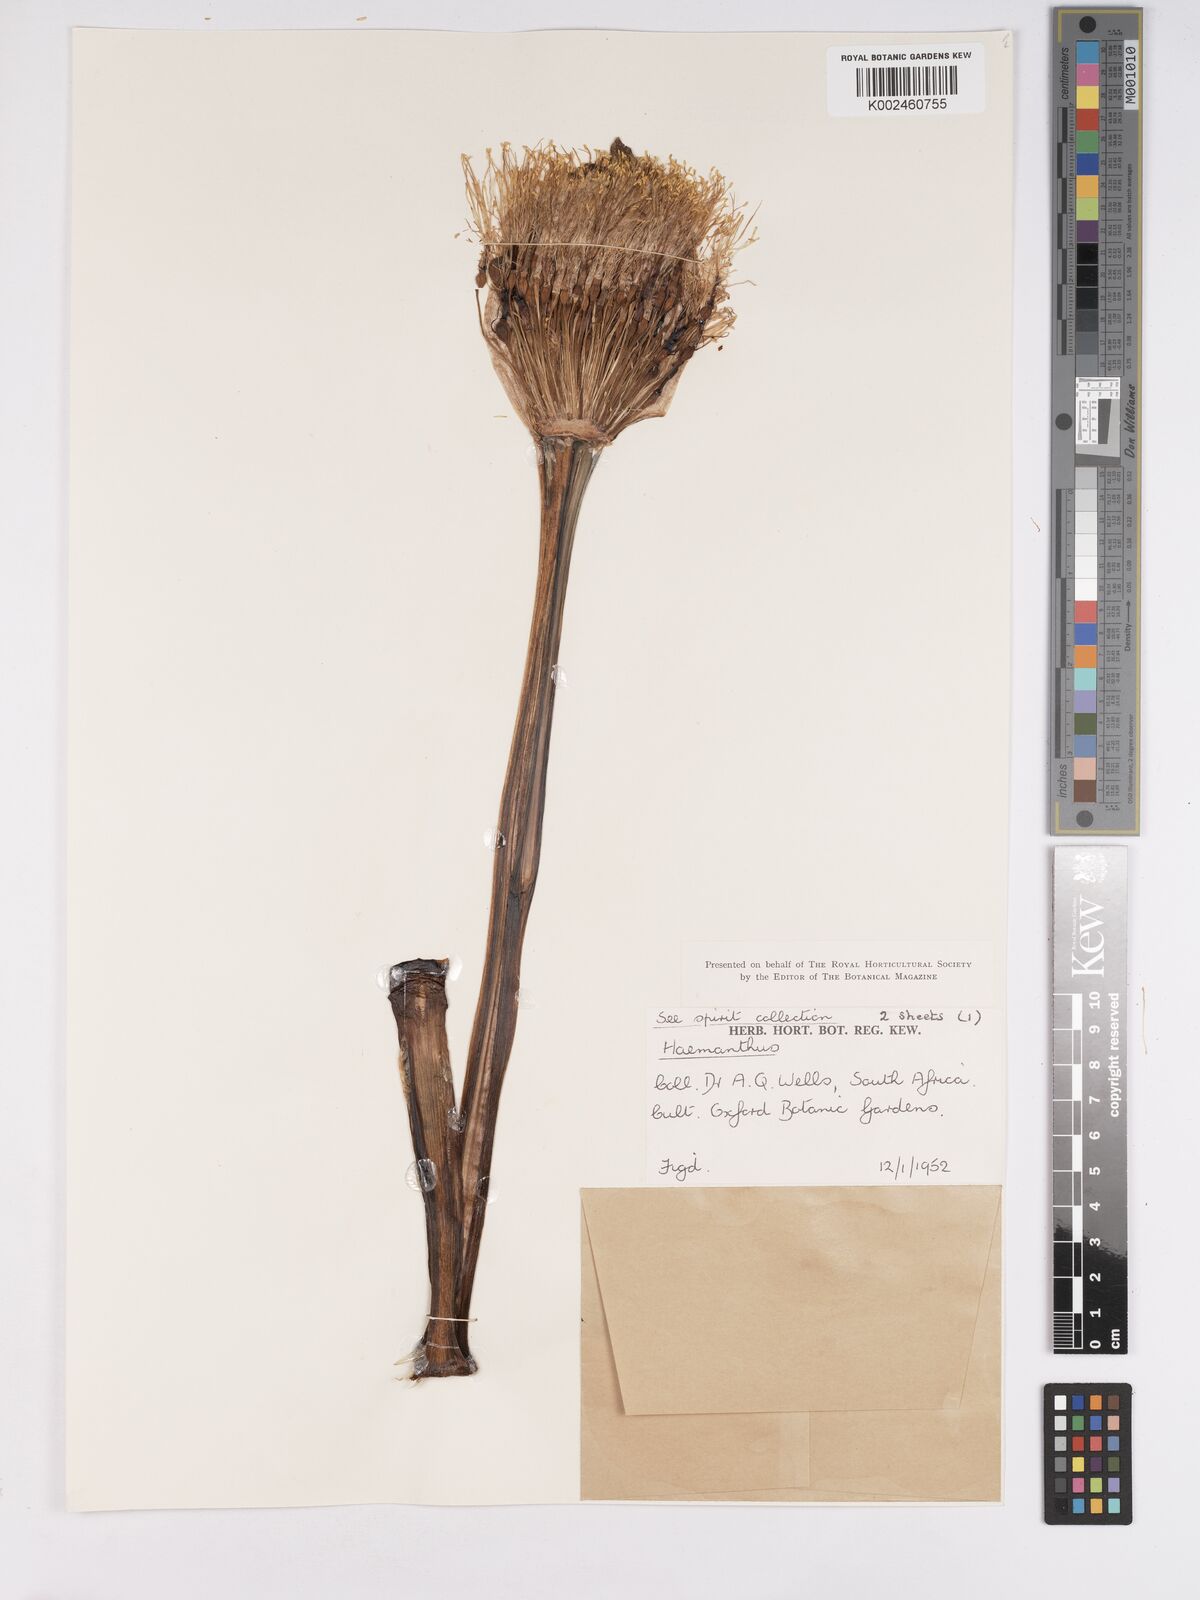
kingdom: Plantae
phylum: Tracheophyta
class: Liliopsida
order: Asparagales
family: Amaryllidaceae
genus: Scadoxus
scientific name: Scadoxus puniceus
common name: Royal-paintbrush
